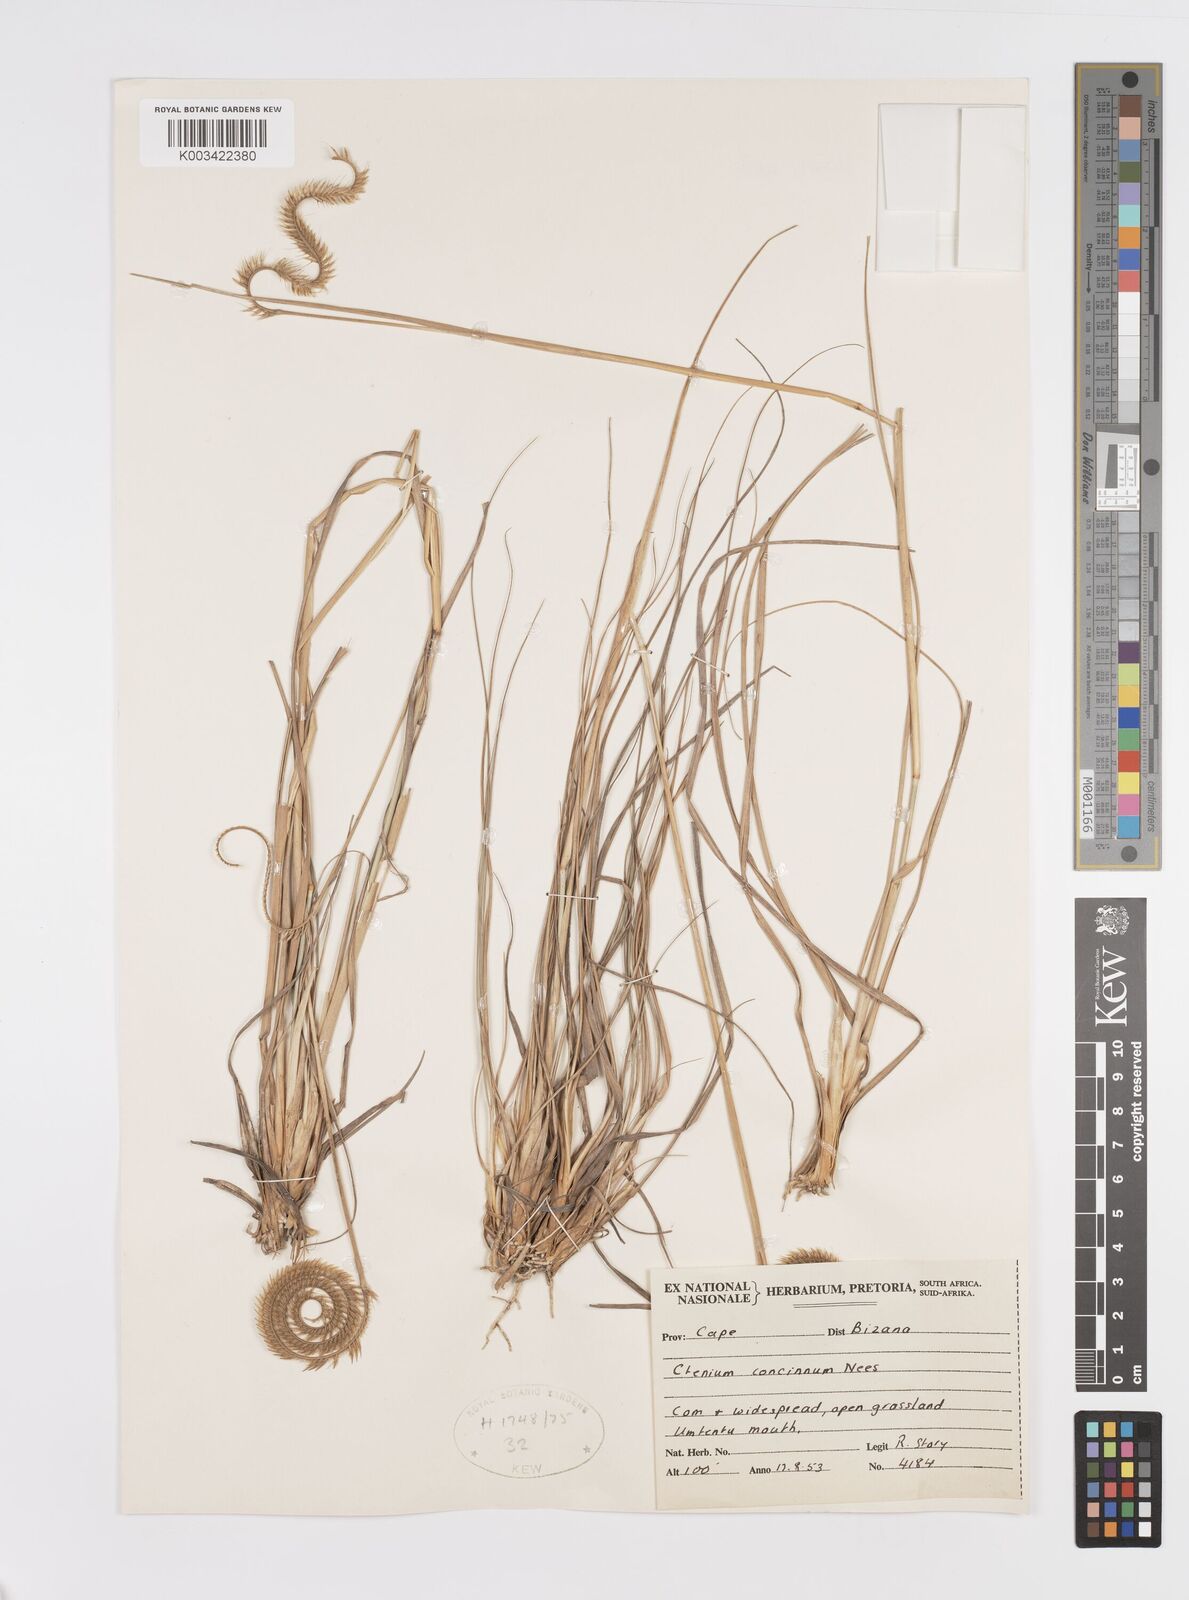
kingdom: Plantae
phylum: Tracheophyta
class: Liliopsida
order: Poales
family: Poaceae
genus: Ctenium
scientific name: Ctenium concinnum
